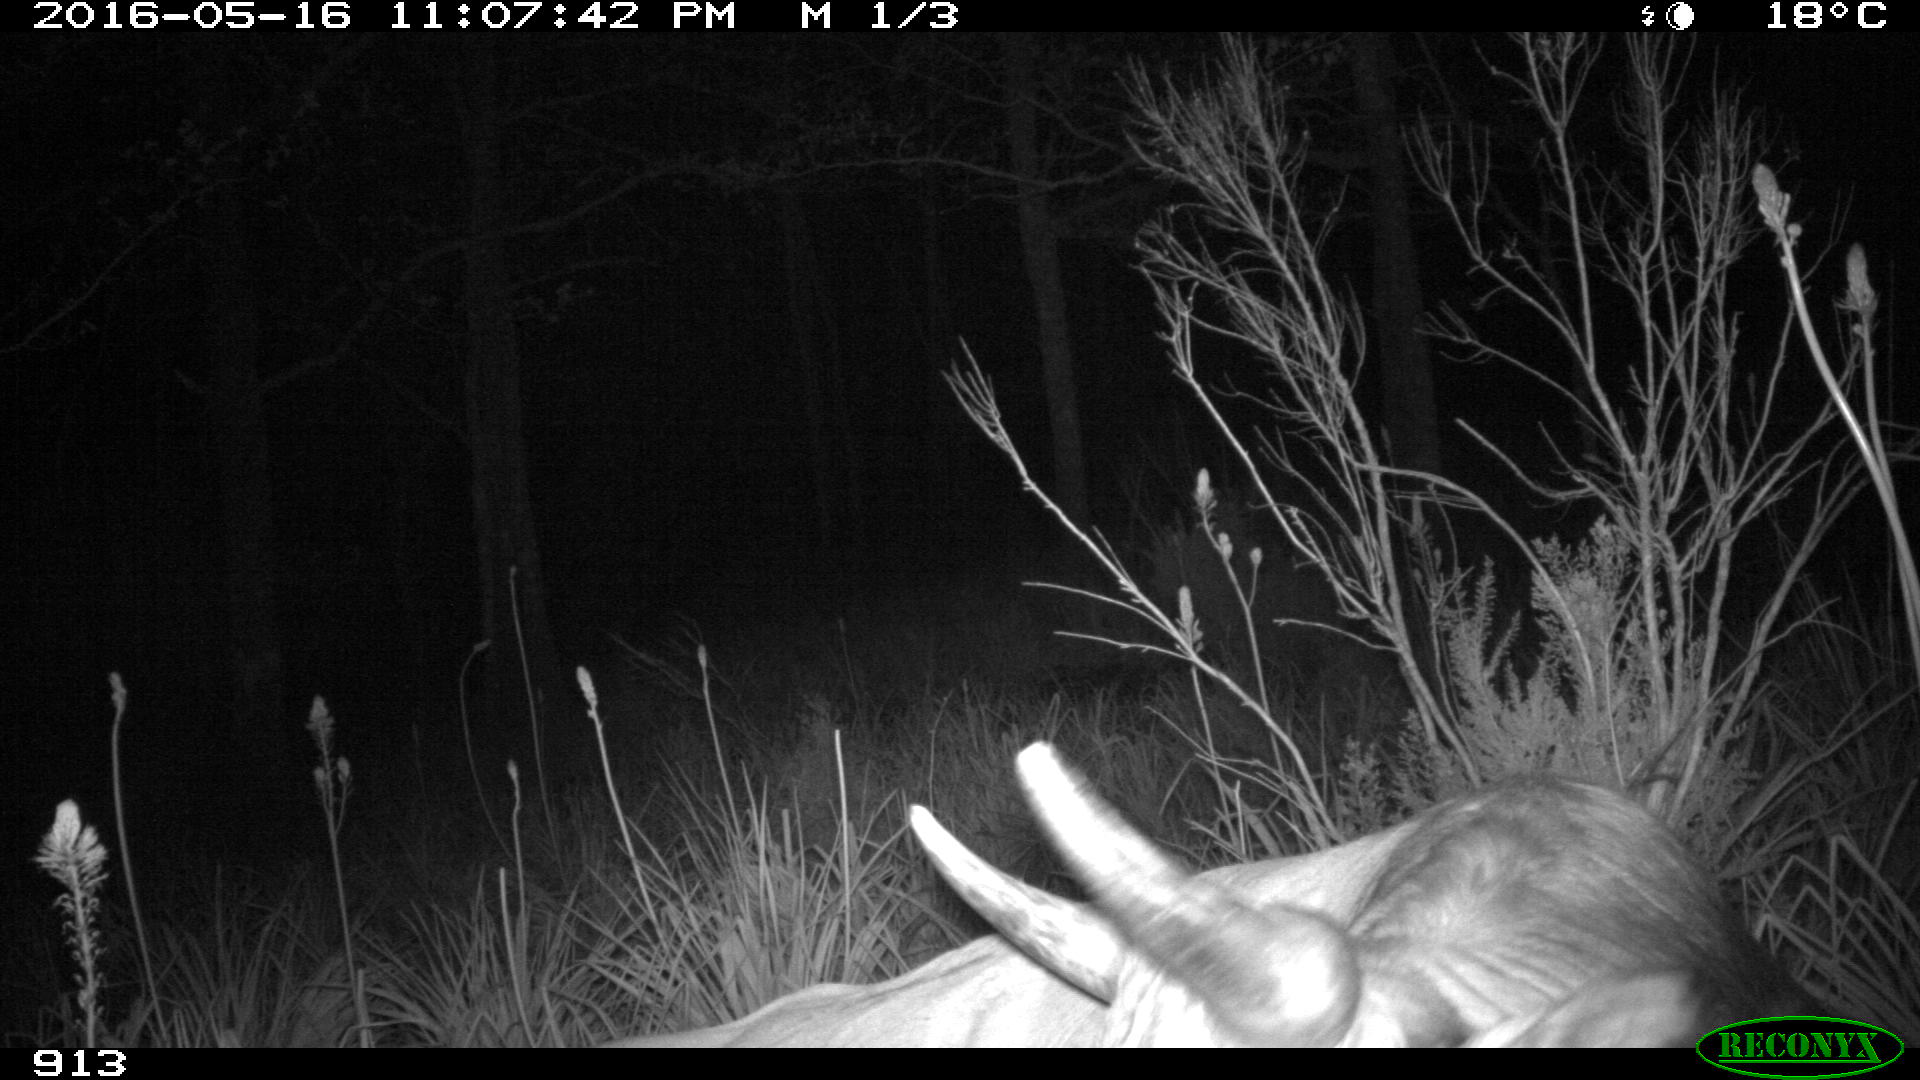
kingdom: Animalia
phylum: Chordata
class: Mammalia
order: Artiodactyla
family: Bovidae
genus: Bos
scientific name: Bos taurus
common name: Domesticated cattle
